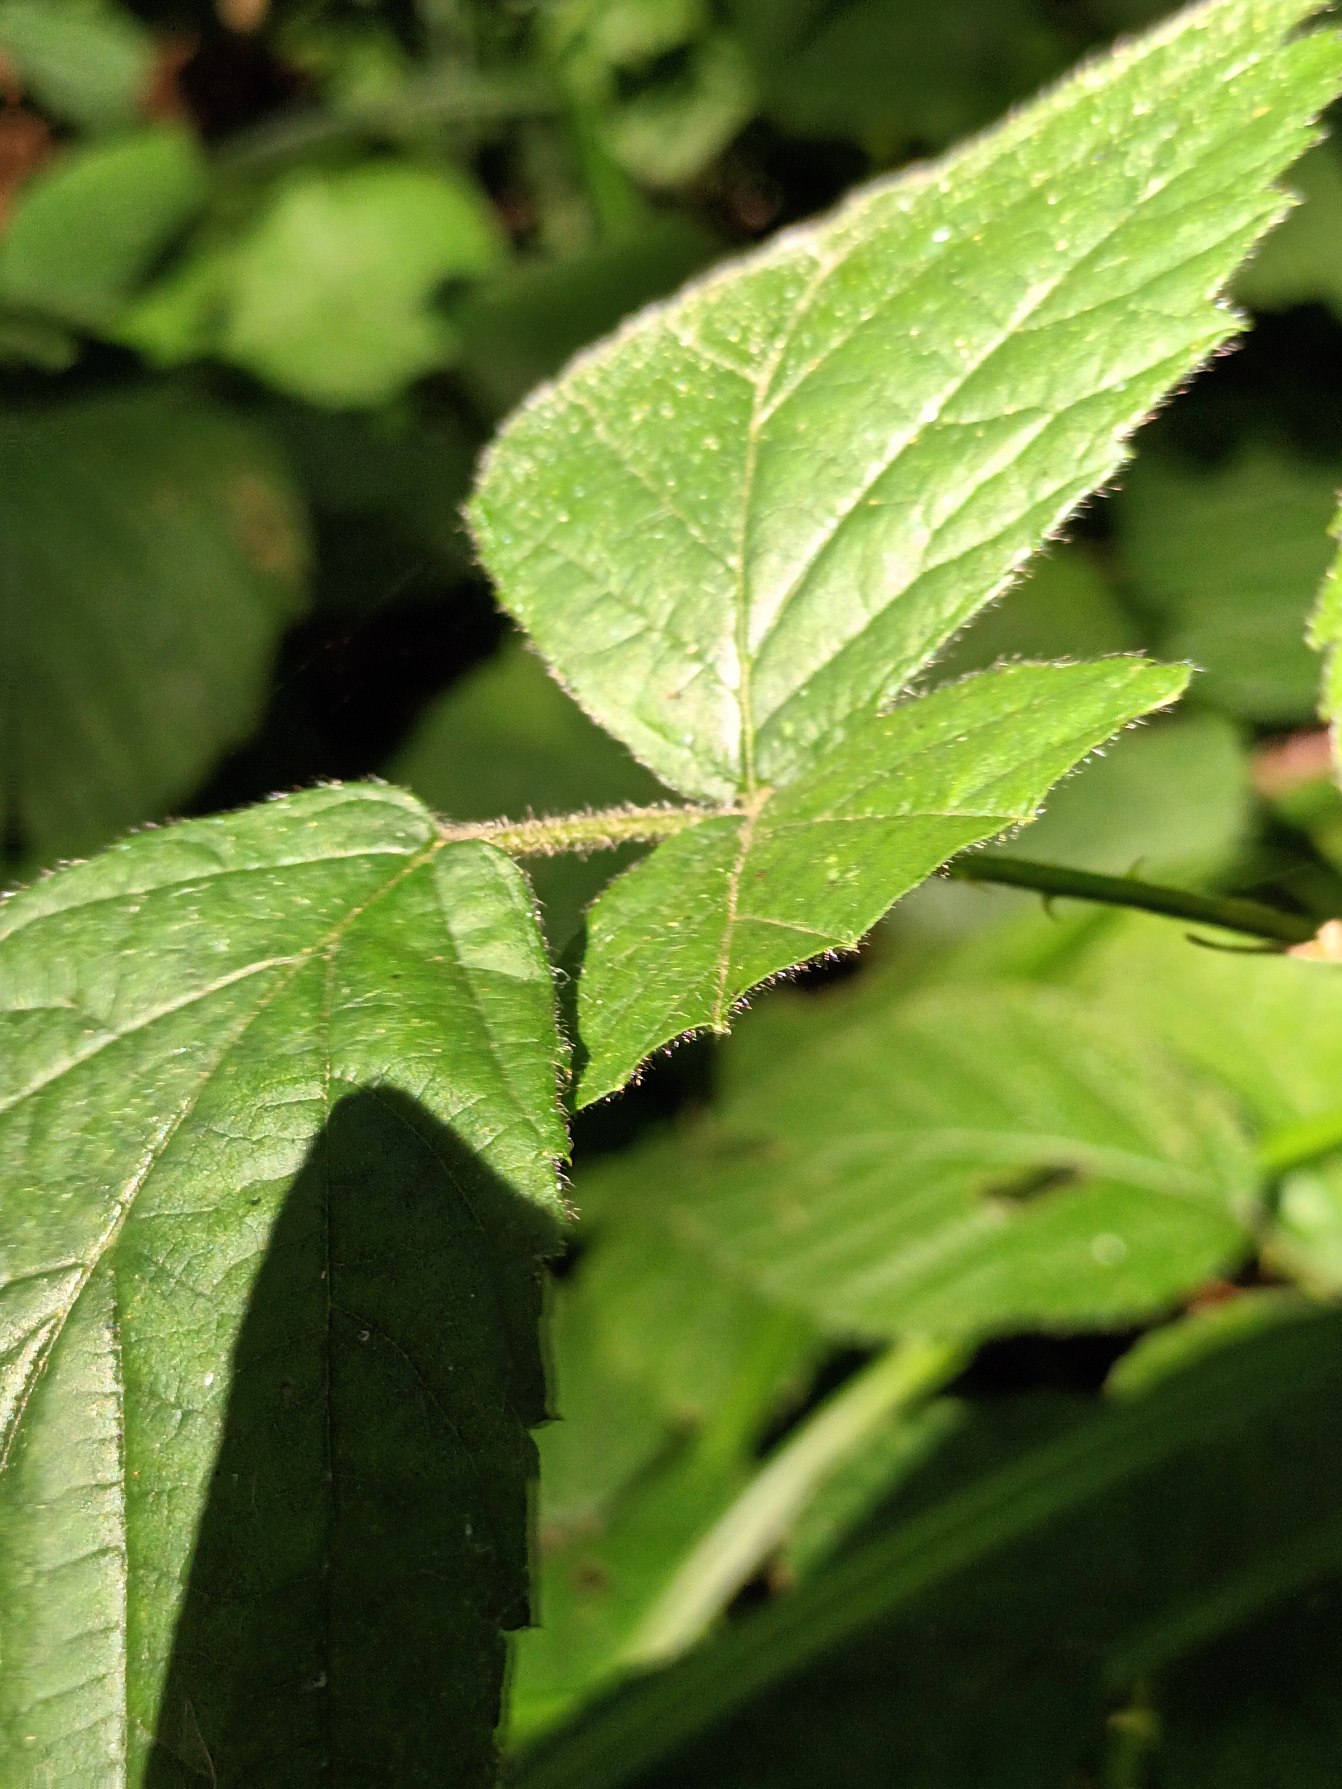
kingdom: Plantae
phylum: Tracheophyta
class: Magnoliopsida
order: Rosales
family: Rosaceae
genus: Rubus
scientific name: Rubus fasciculatus
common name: Gråbladet hasselbrombær
